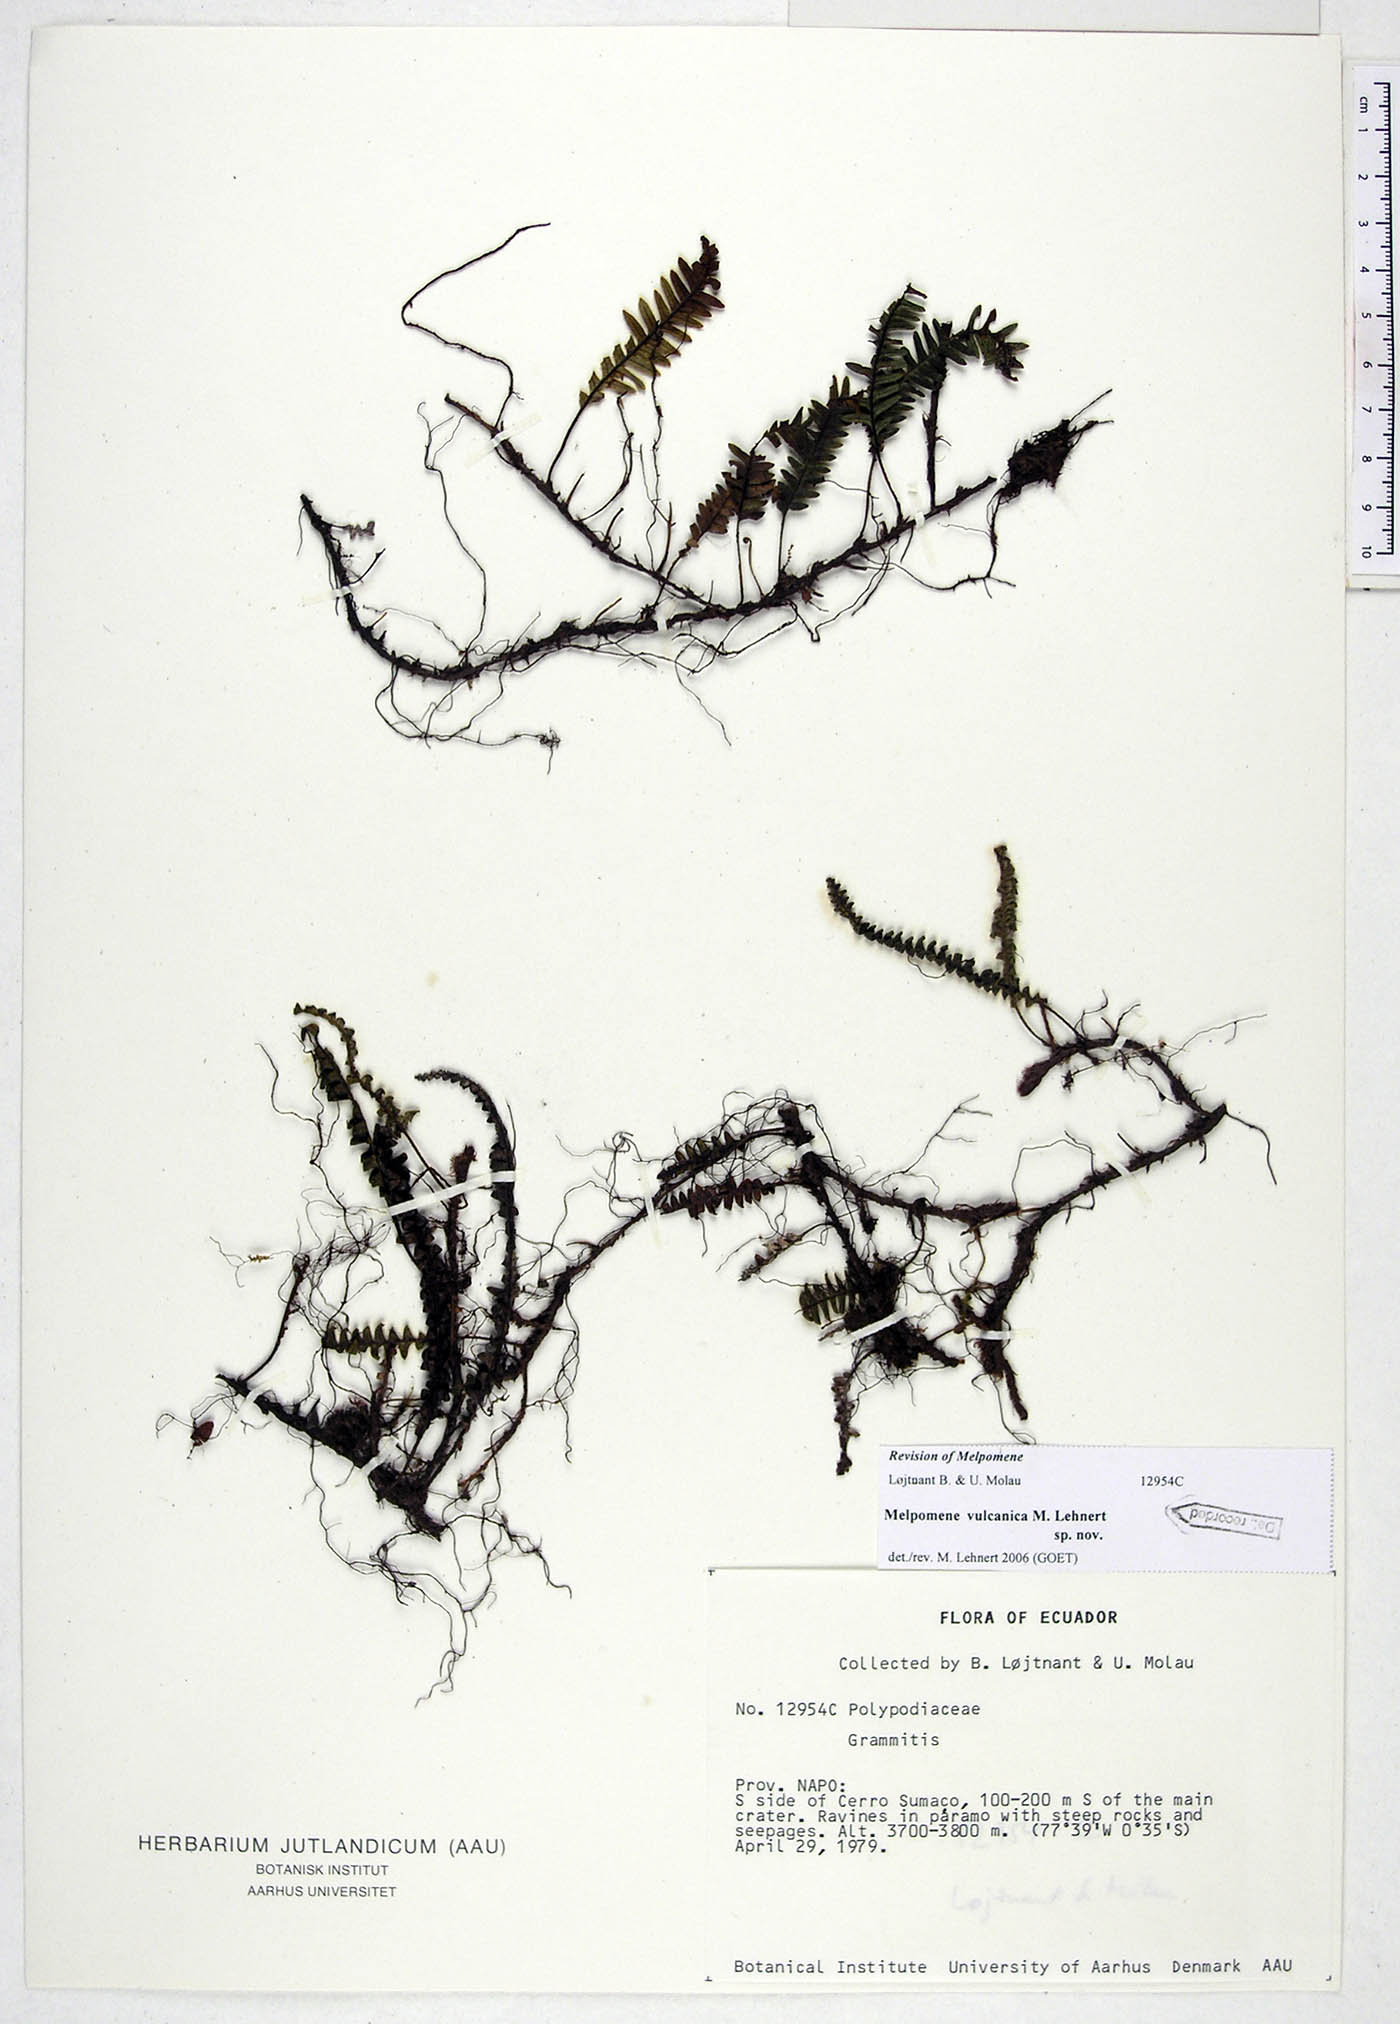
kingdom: Plantae
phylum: Tracheophyta
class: Polypodiopsida
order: Polypodiales
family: Polypodiaceae
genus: Melpomene
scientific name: Melpomene vulcanica
